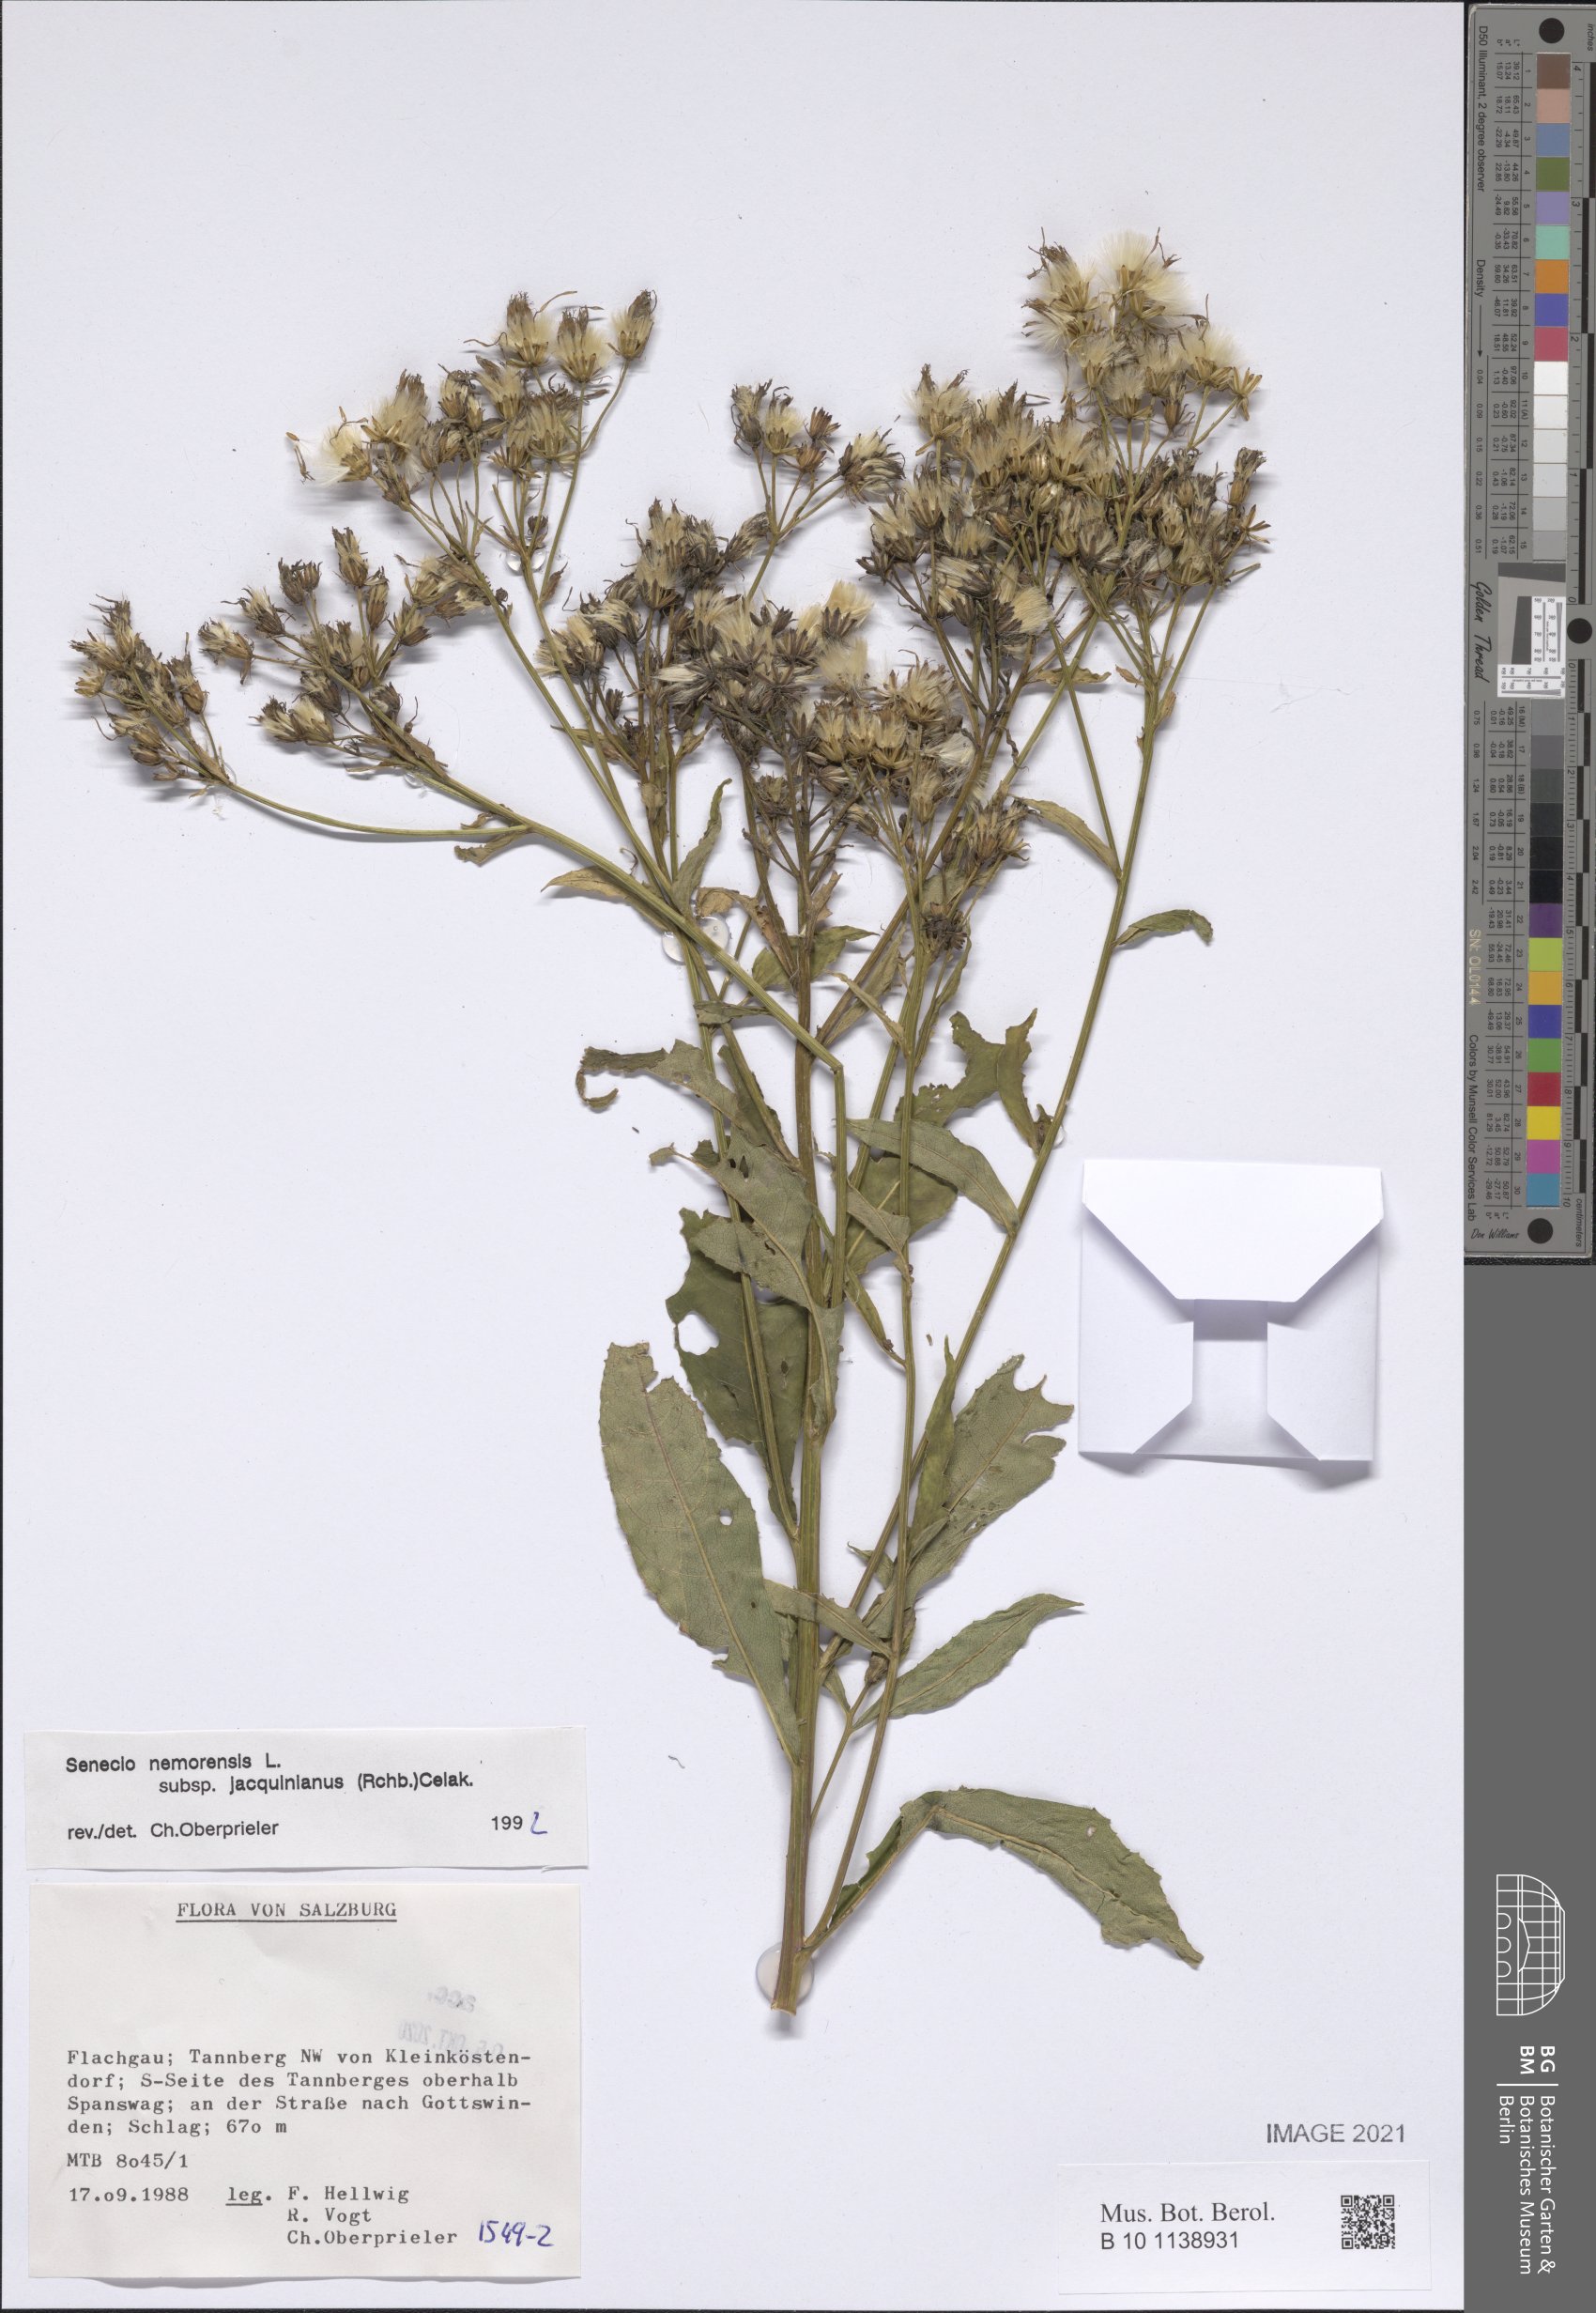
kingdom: Plantae
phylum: Tracheophyta
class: Magnoliopsida
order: Asterales
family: Asteraceae
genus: Senecio
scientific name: Senecio germanicus
